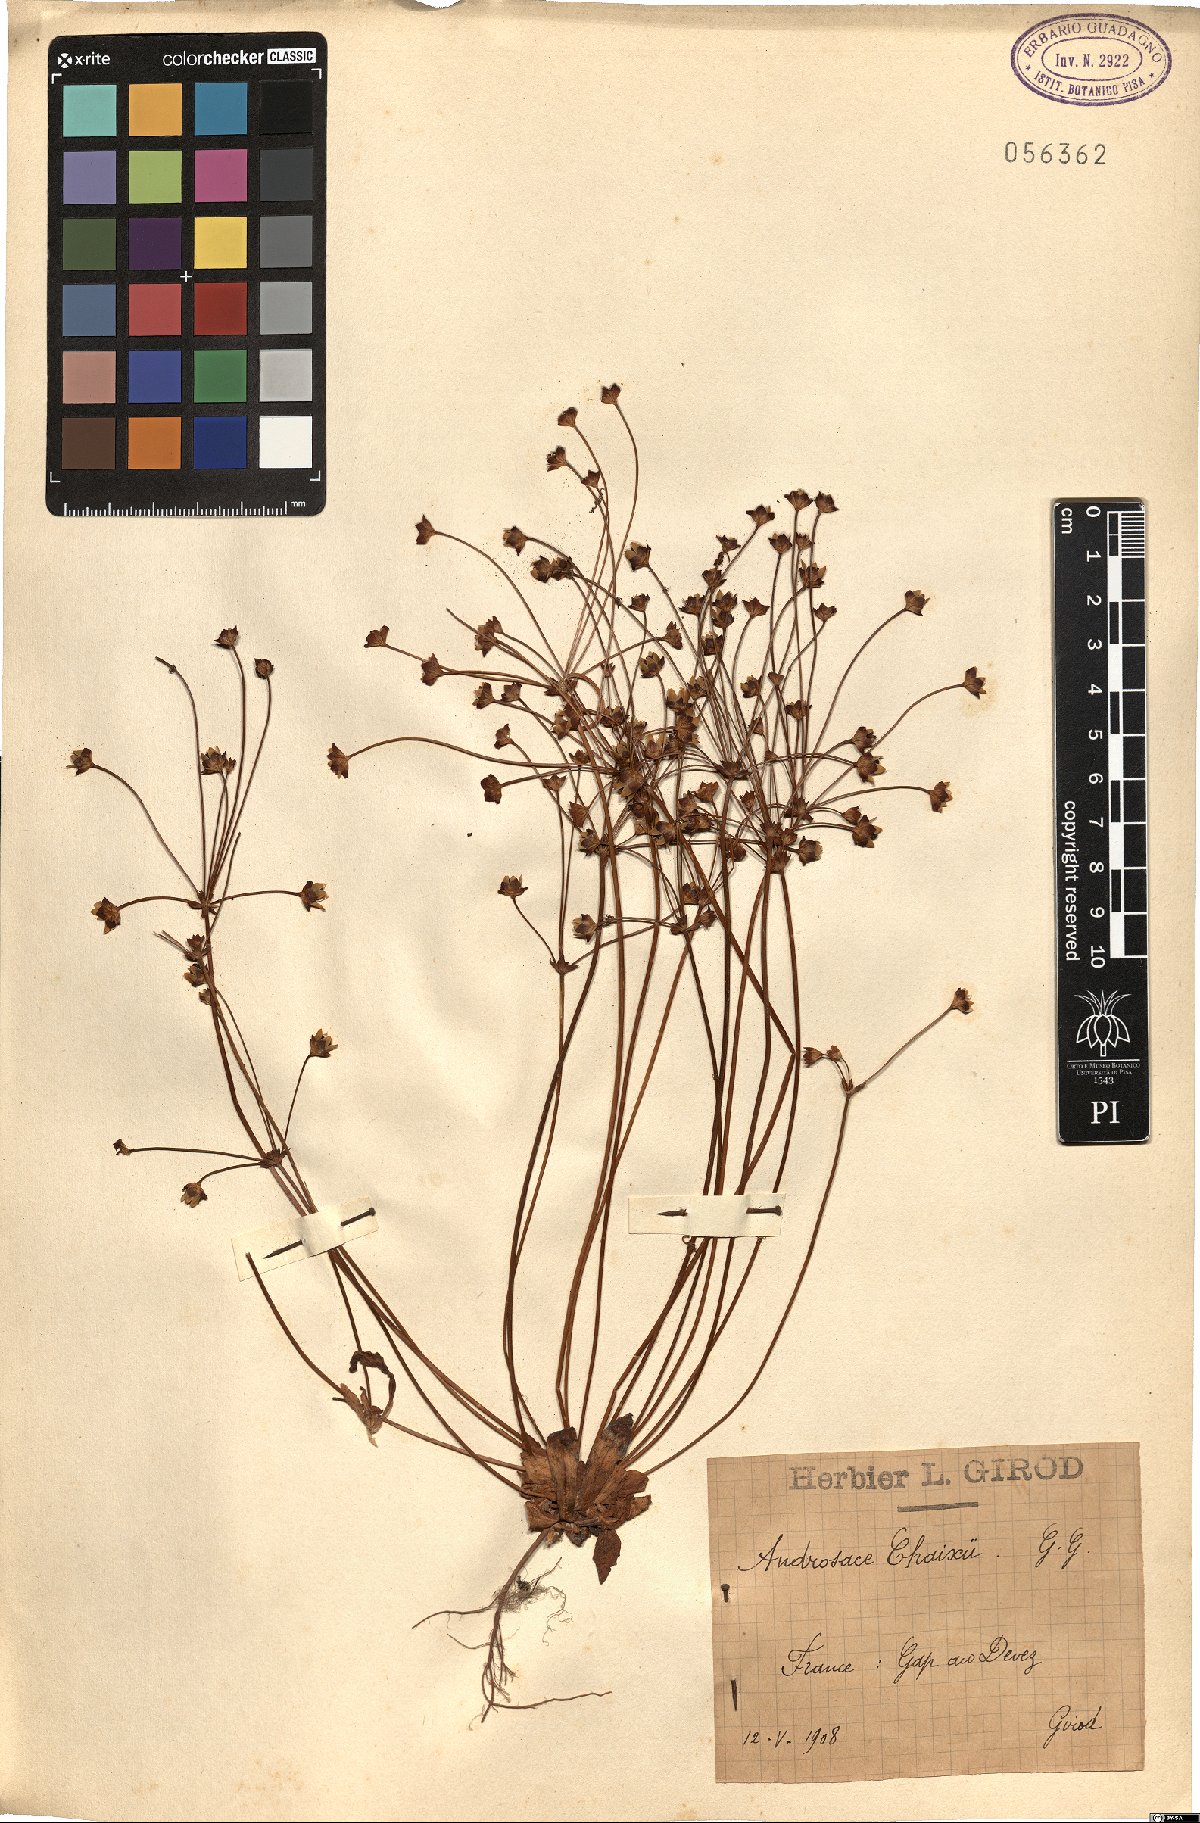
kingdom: Plantae
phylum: Tracheophyta
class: Magnoliopsida
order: Ericales
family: Primulaceae
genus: Androsace
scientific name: Androsace chaixii
